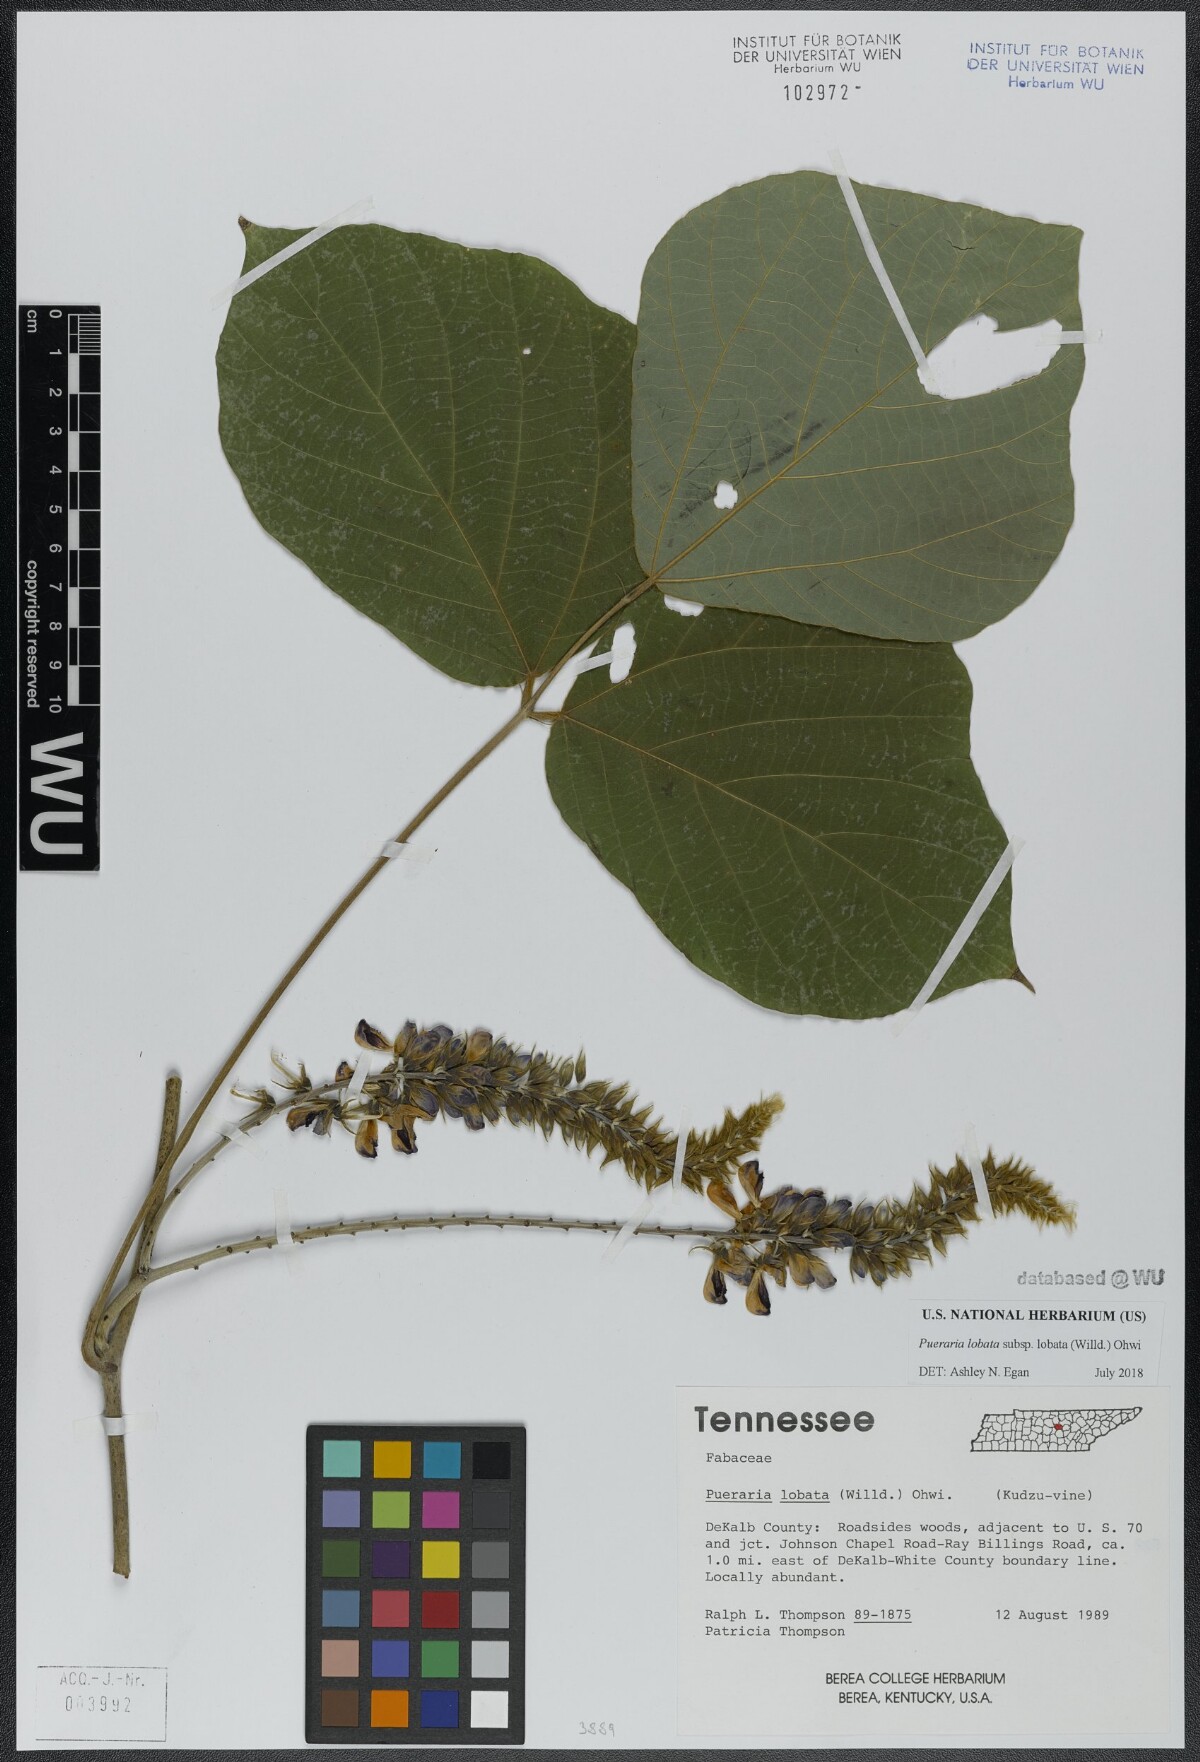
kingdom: Plantae
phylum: Tracheophyta
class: Magnoliopsida
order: Fabales
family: Fabaceae
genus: Pueraria
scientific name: Pueraria montana
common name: Kudzu
